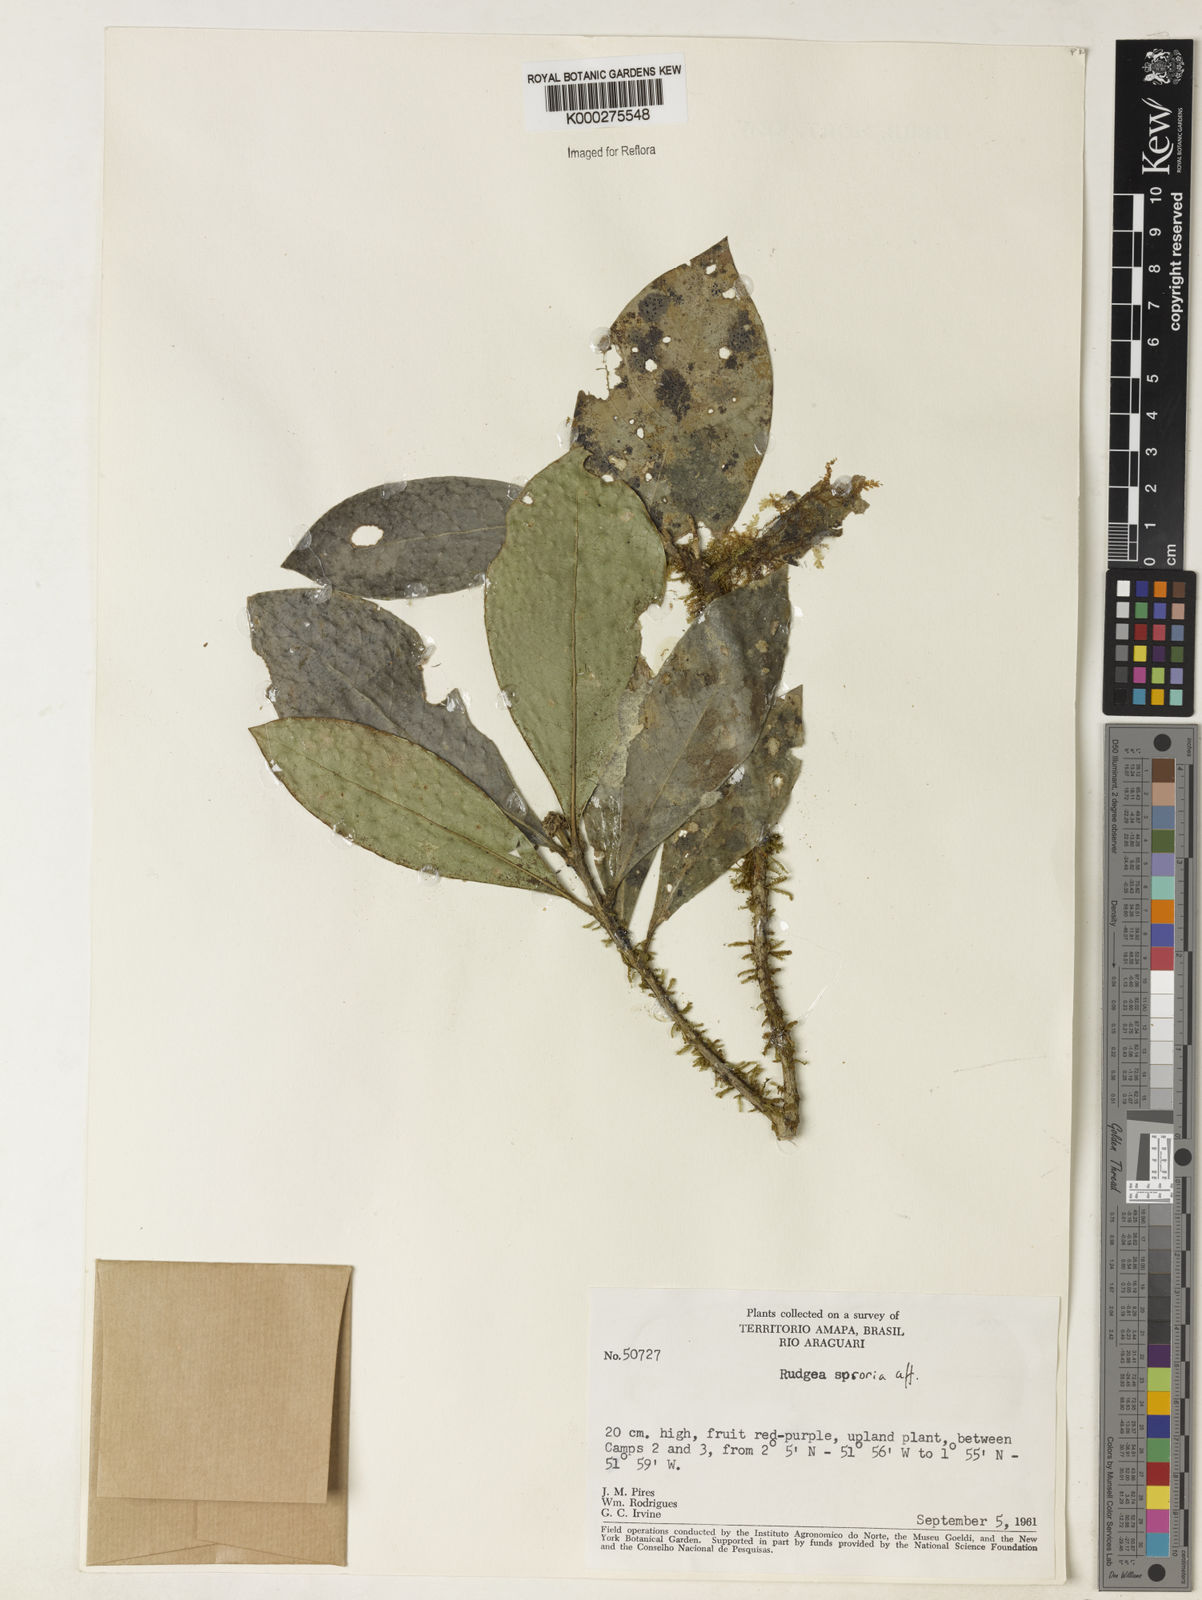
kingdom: Plantae
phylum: Tracheophyta
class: Magnoliopsida
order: Gentianales
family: Rubiaceae
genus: Rudgea
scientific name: Rudgea sororia
